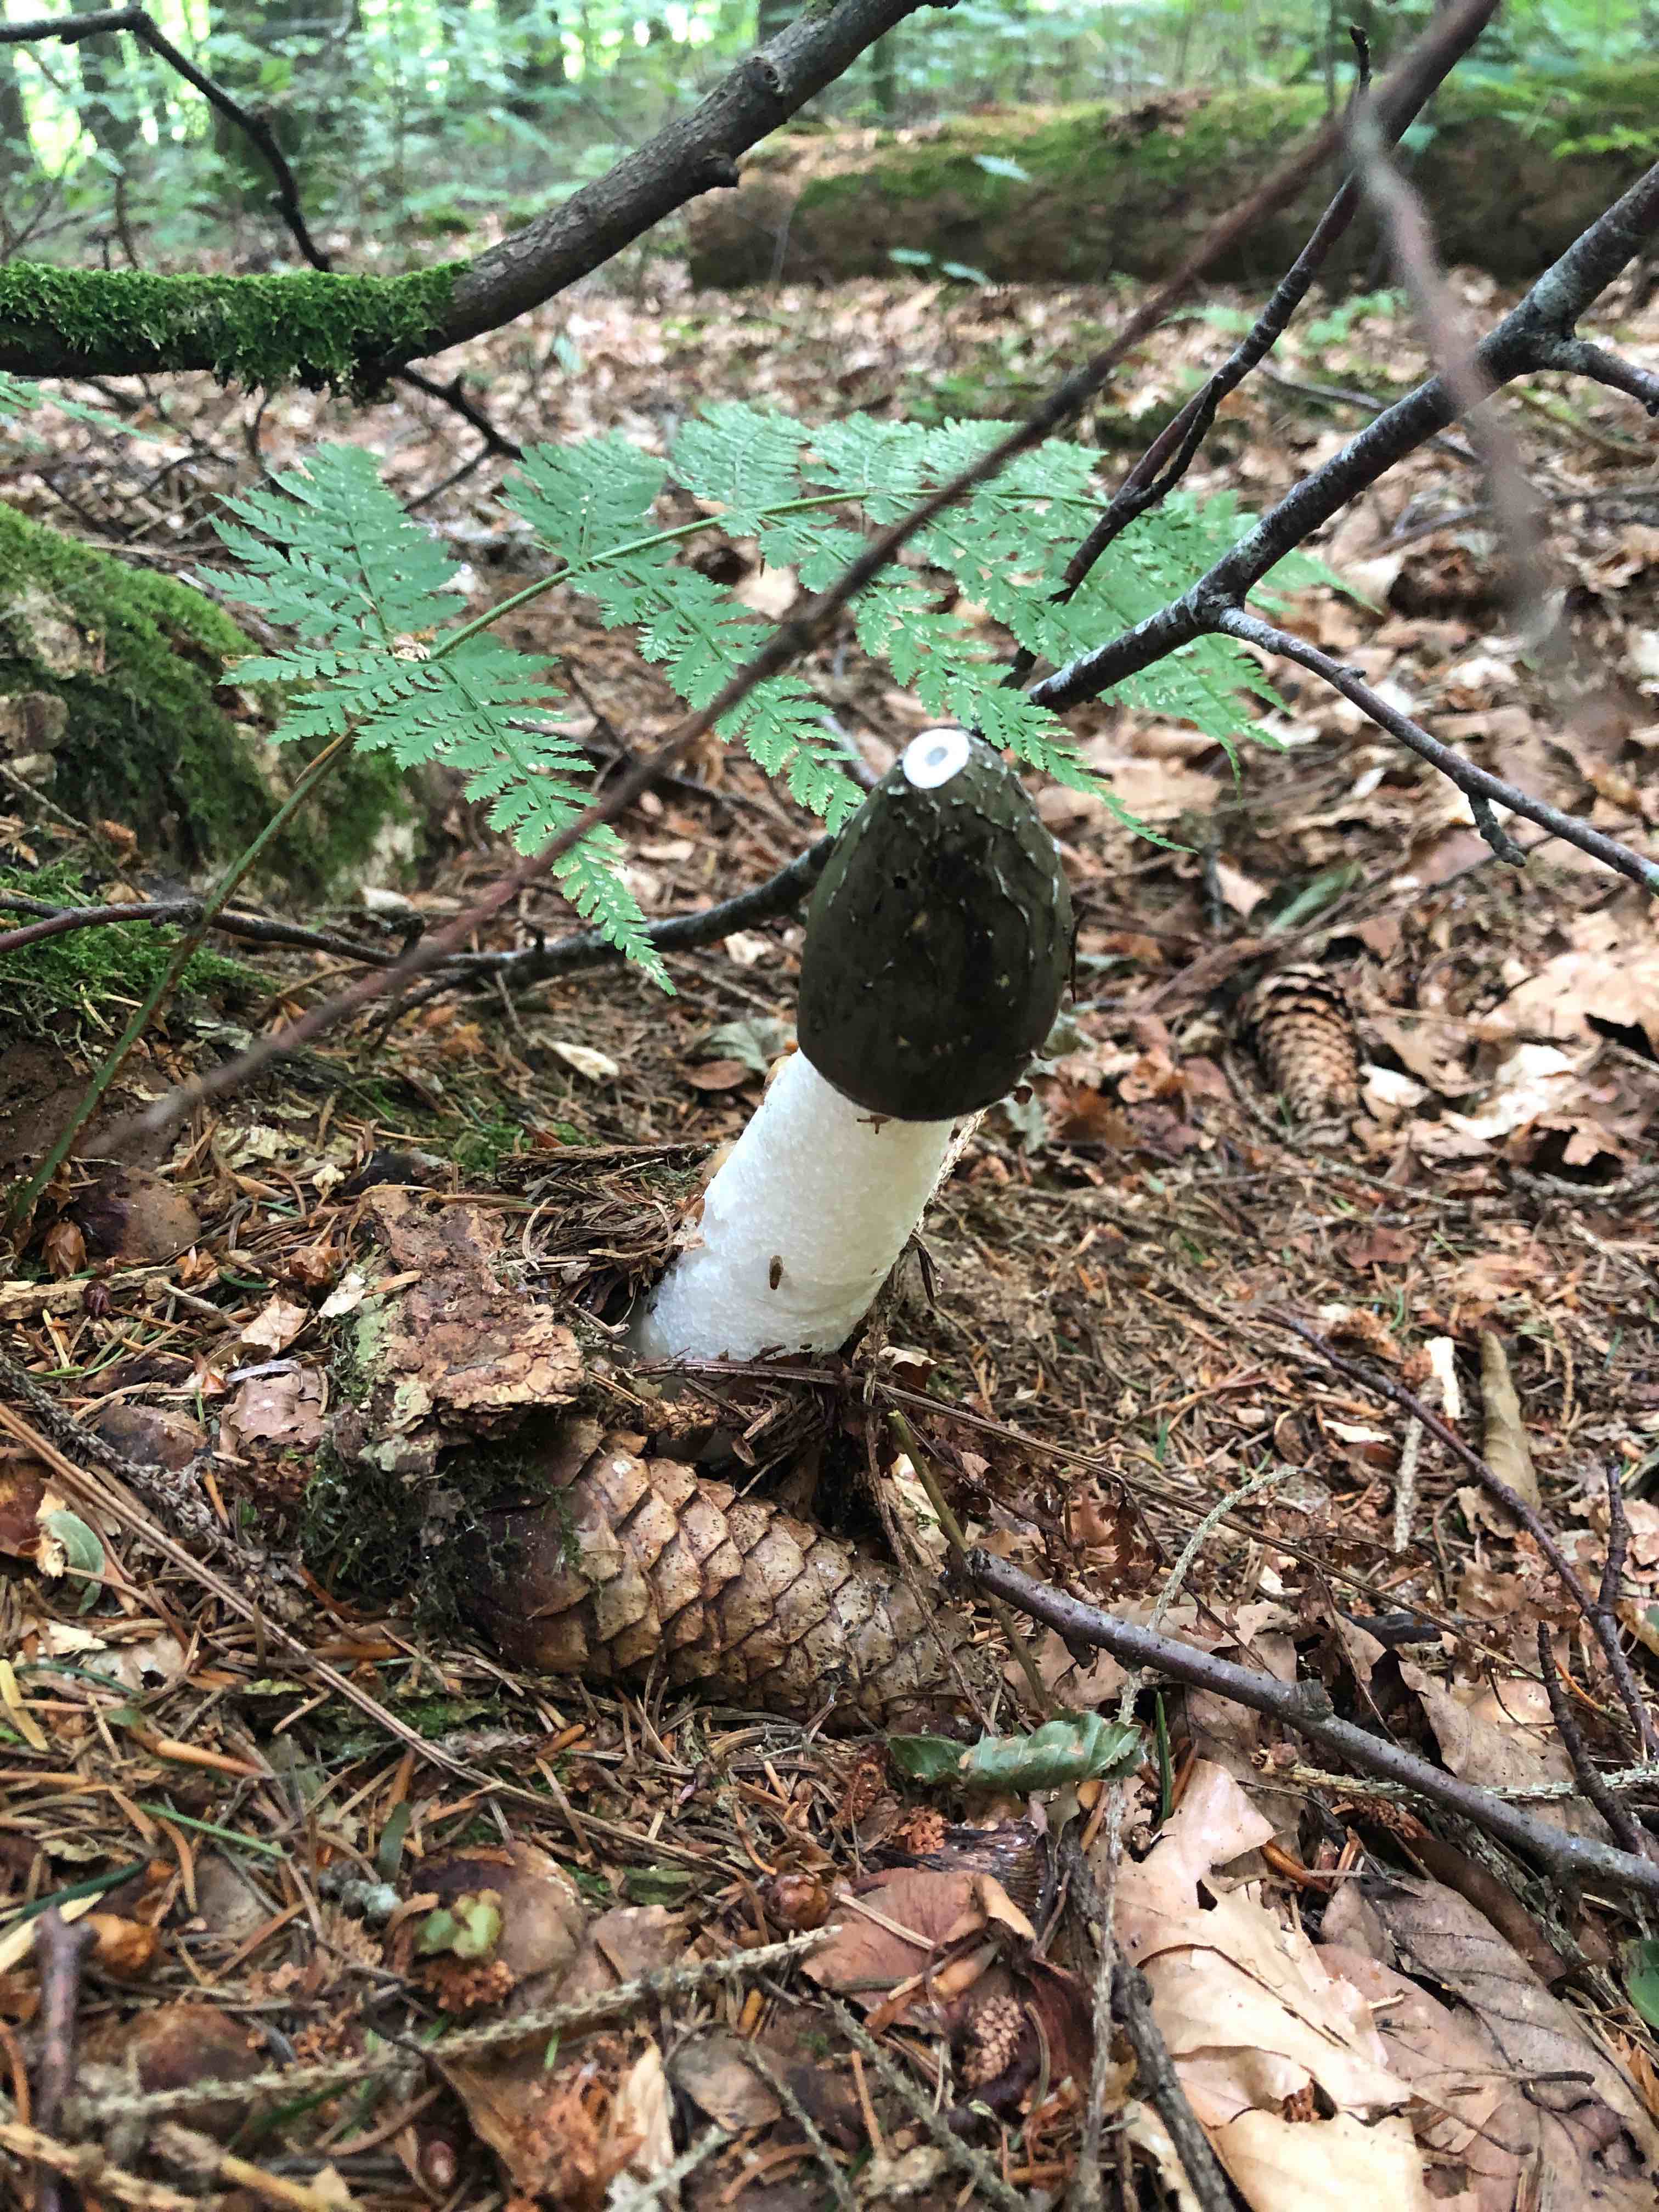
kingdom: Fungi
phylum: Basidiomycota
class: Agaricomycetes
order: Phallales
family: Phallaceae
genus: Phallus
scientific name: Phallus impudicus
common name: almindelig stinksvamp
